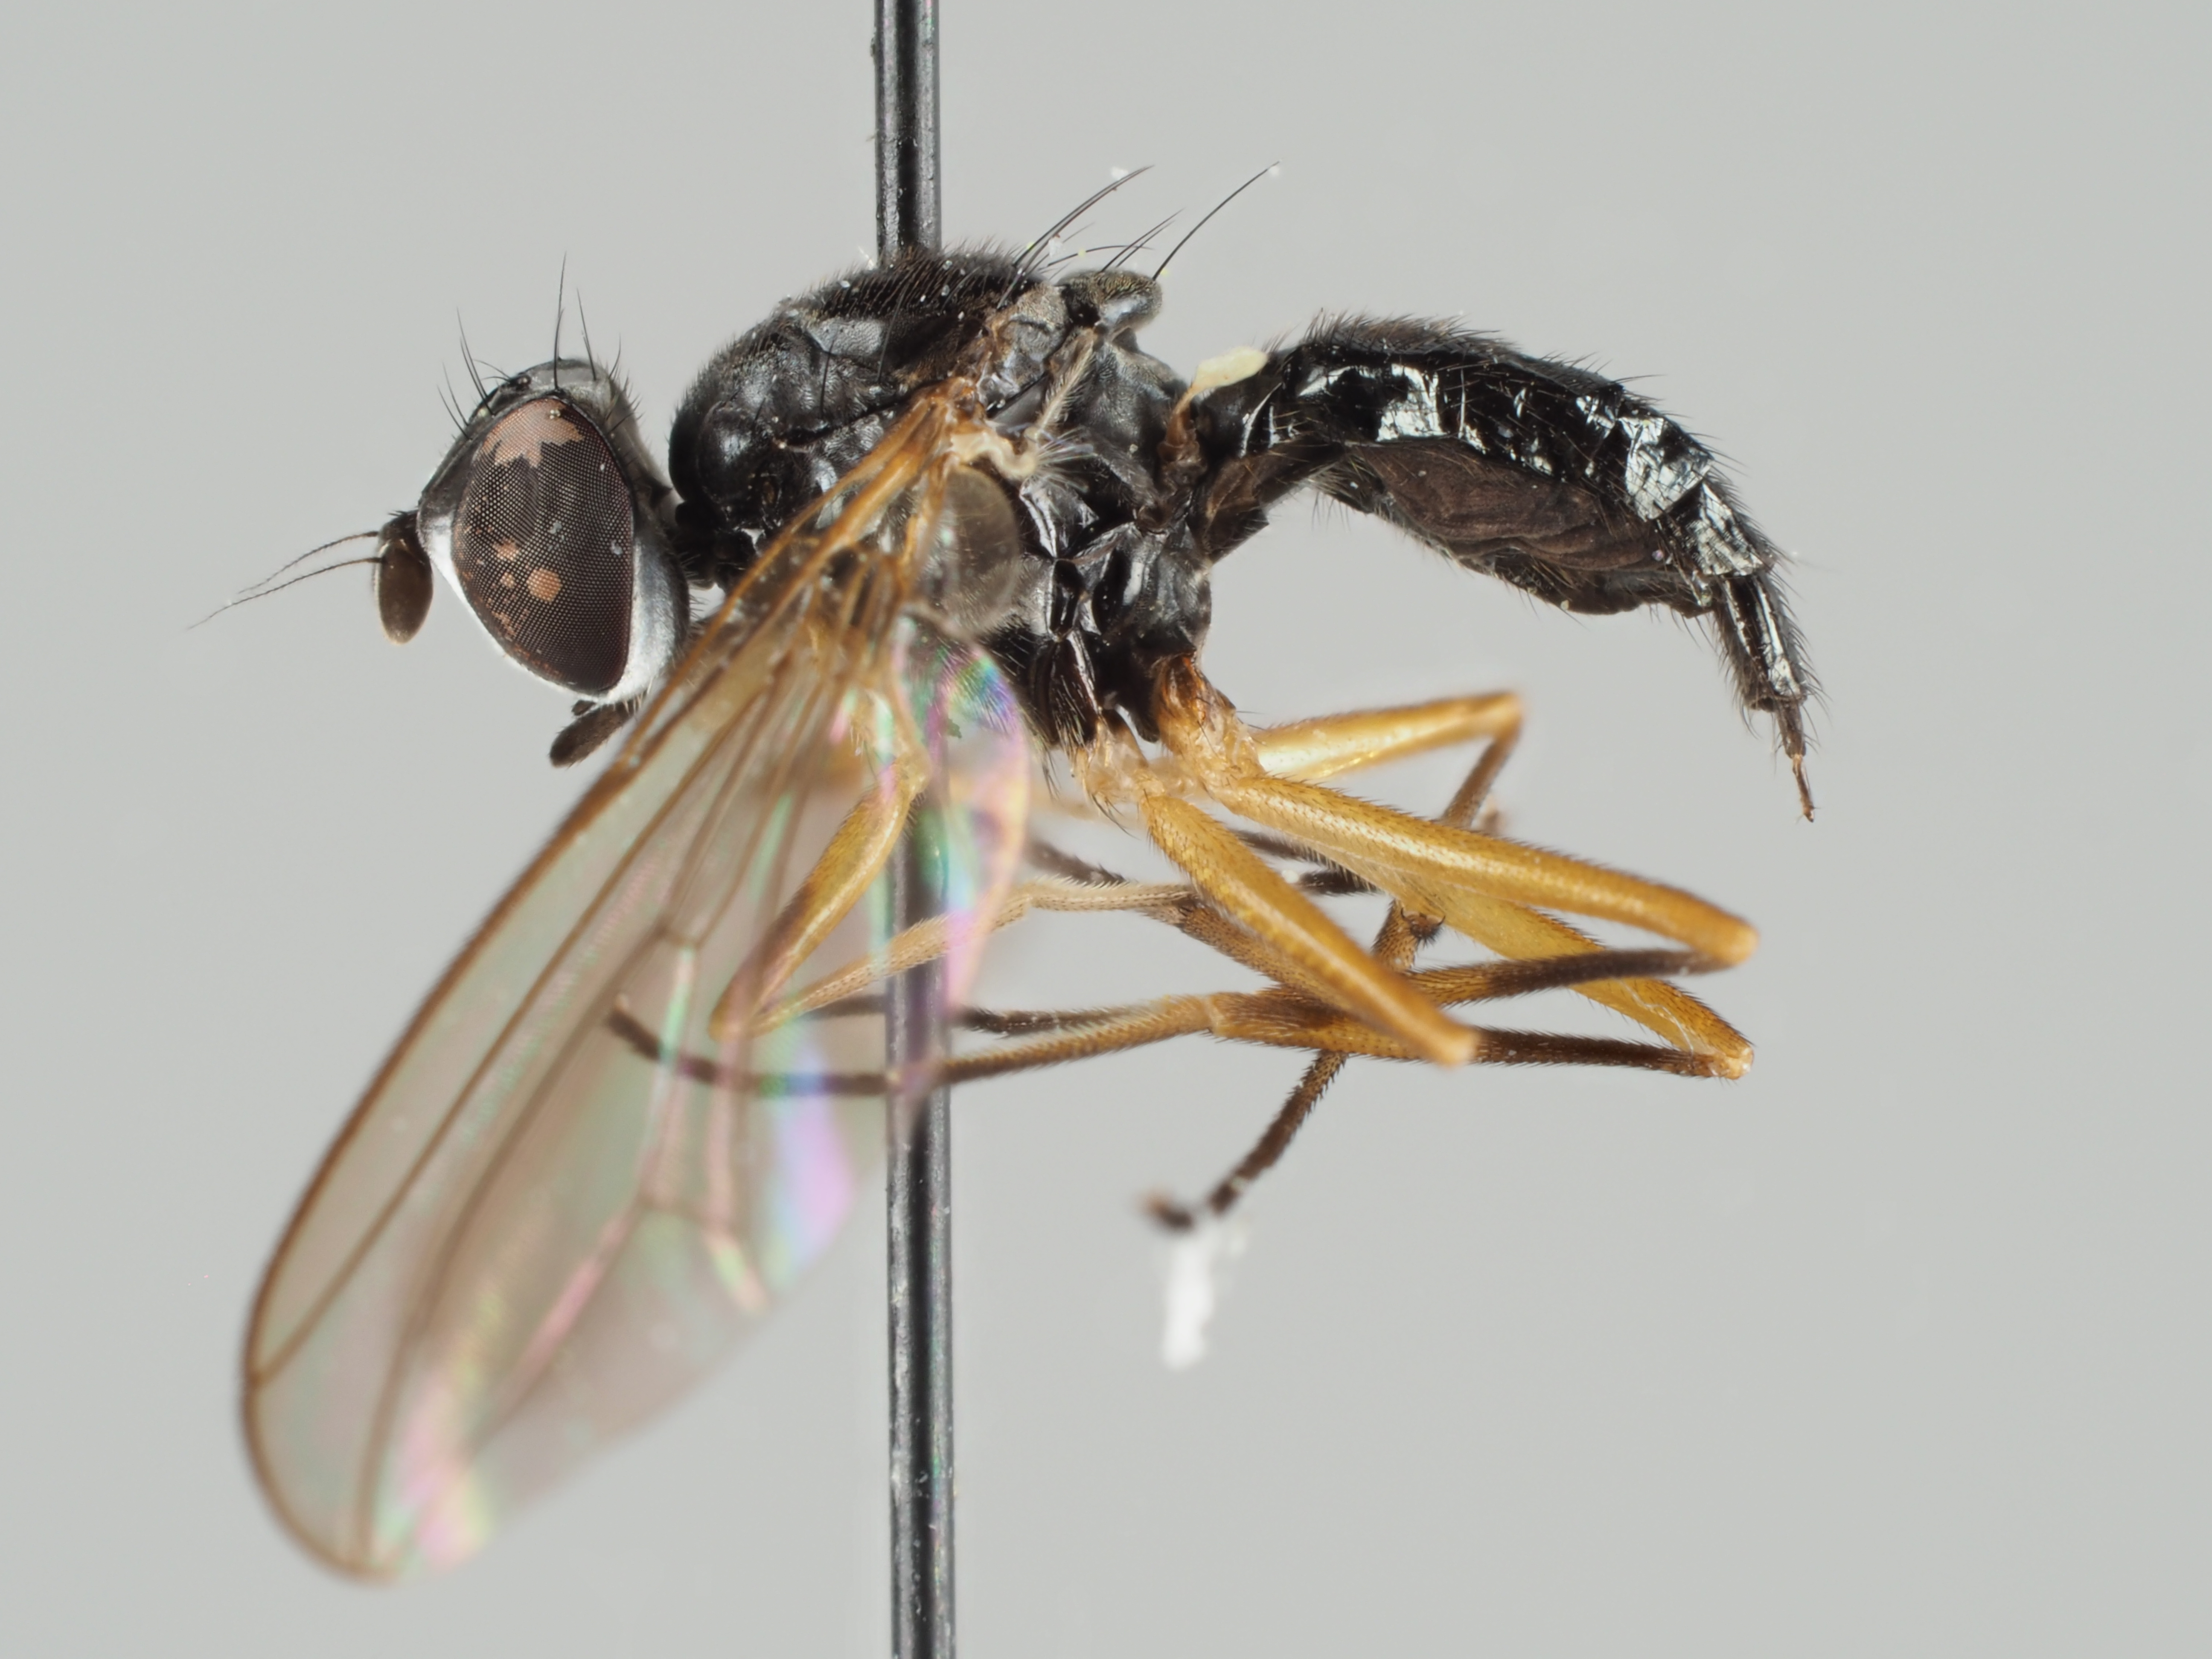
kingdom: Animalia
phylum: Arthropoda
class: Insecta
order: Diptera
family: Tanypezidae
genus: Tanypeza
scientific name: Tanypeza longimanus
